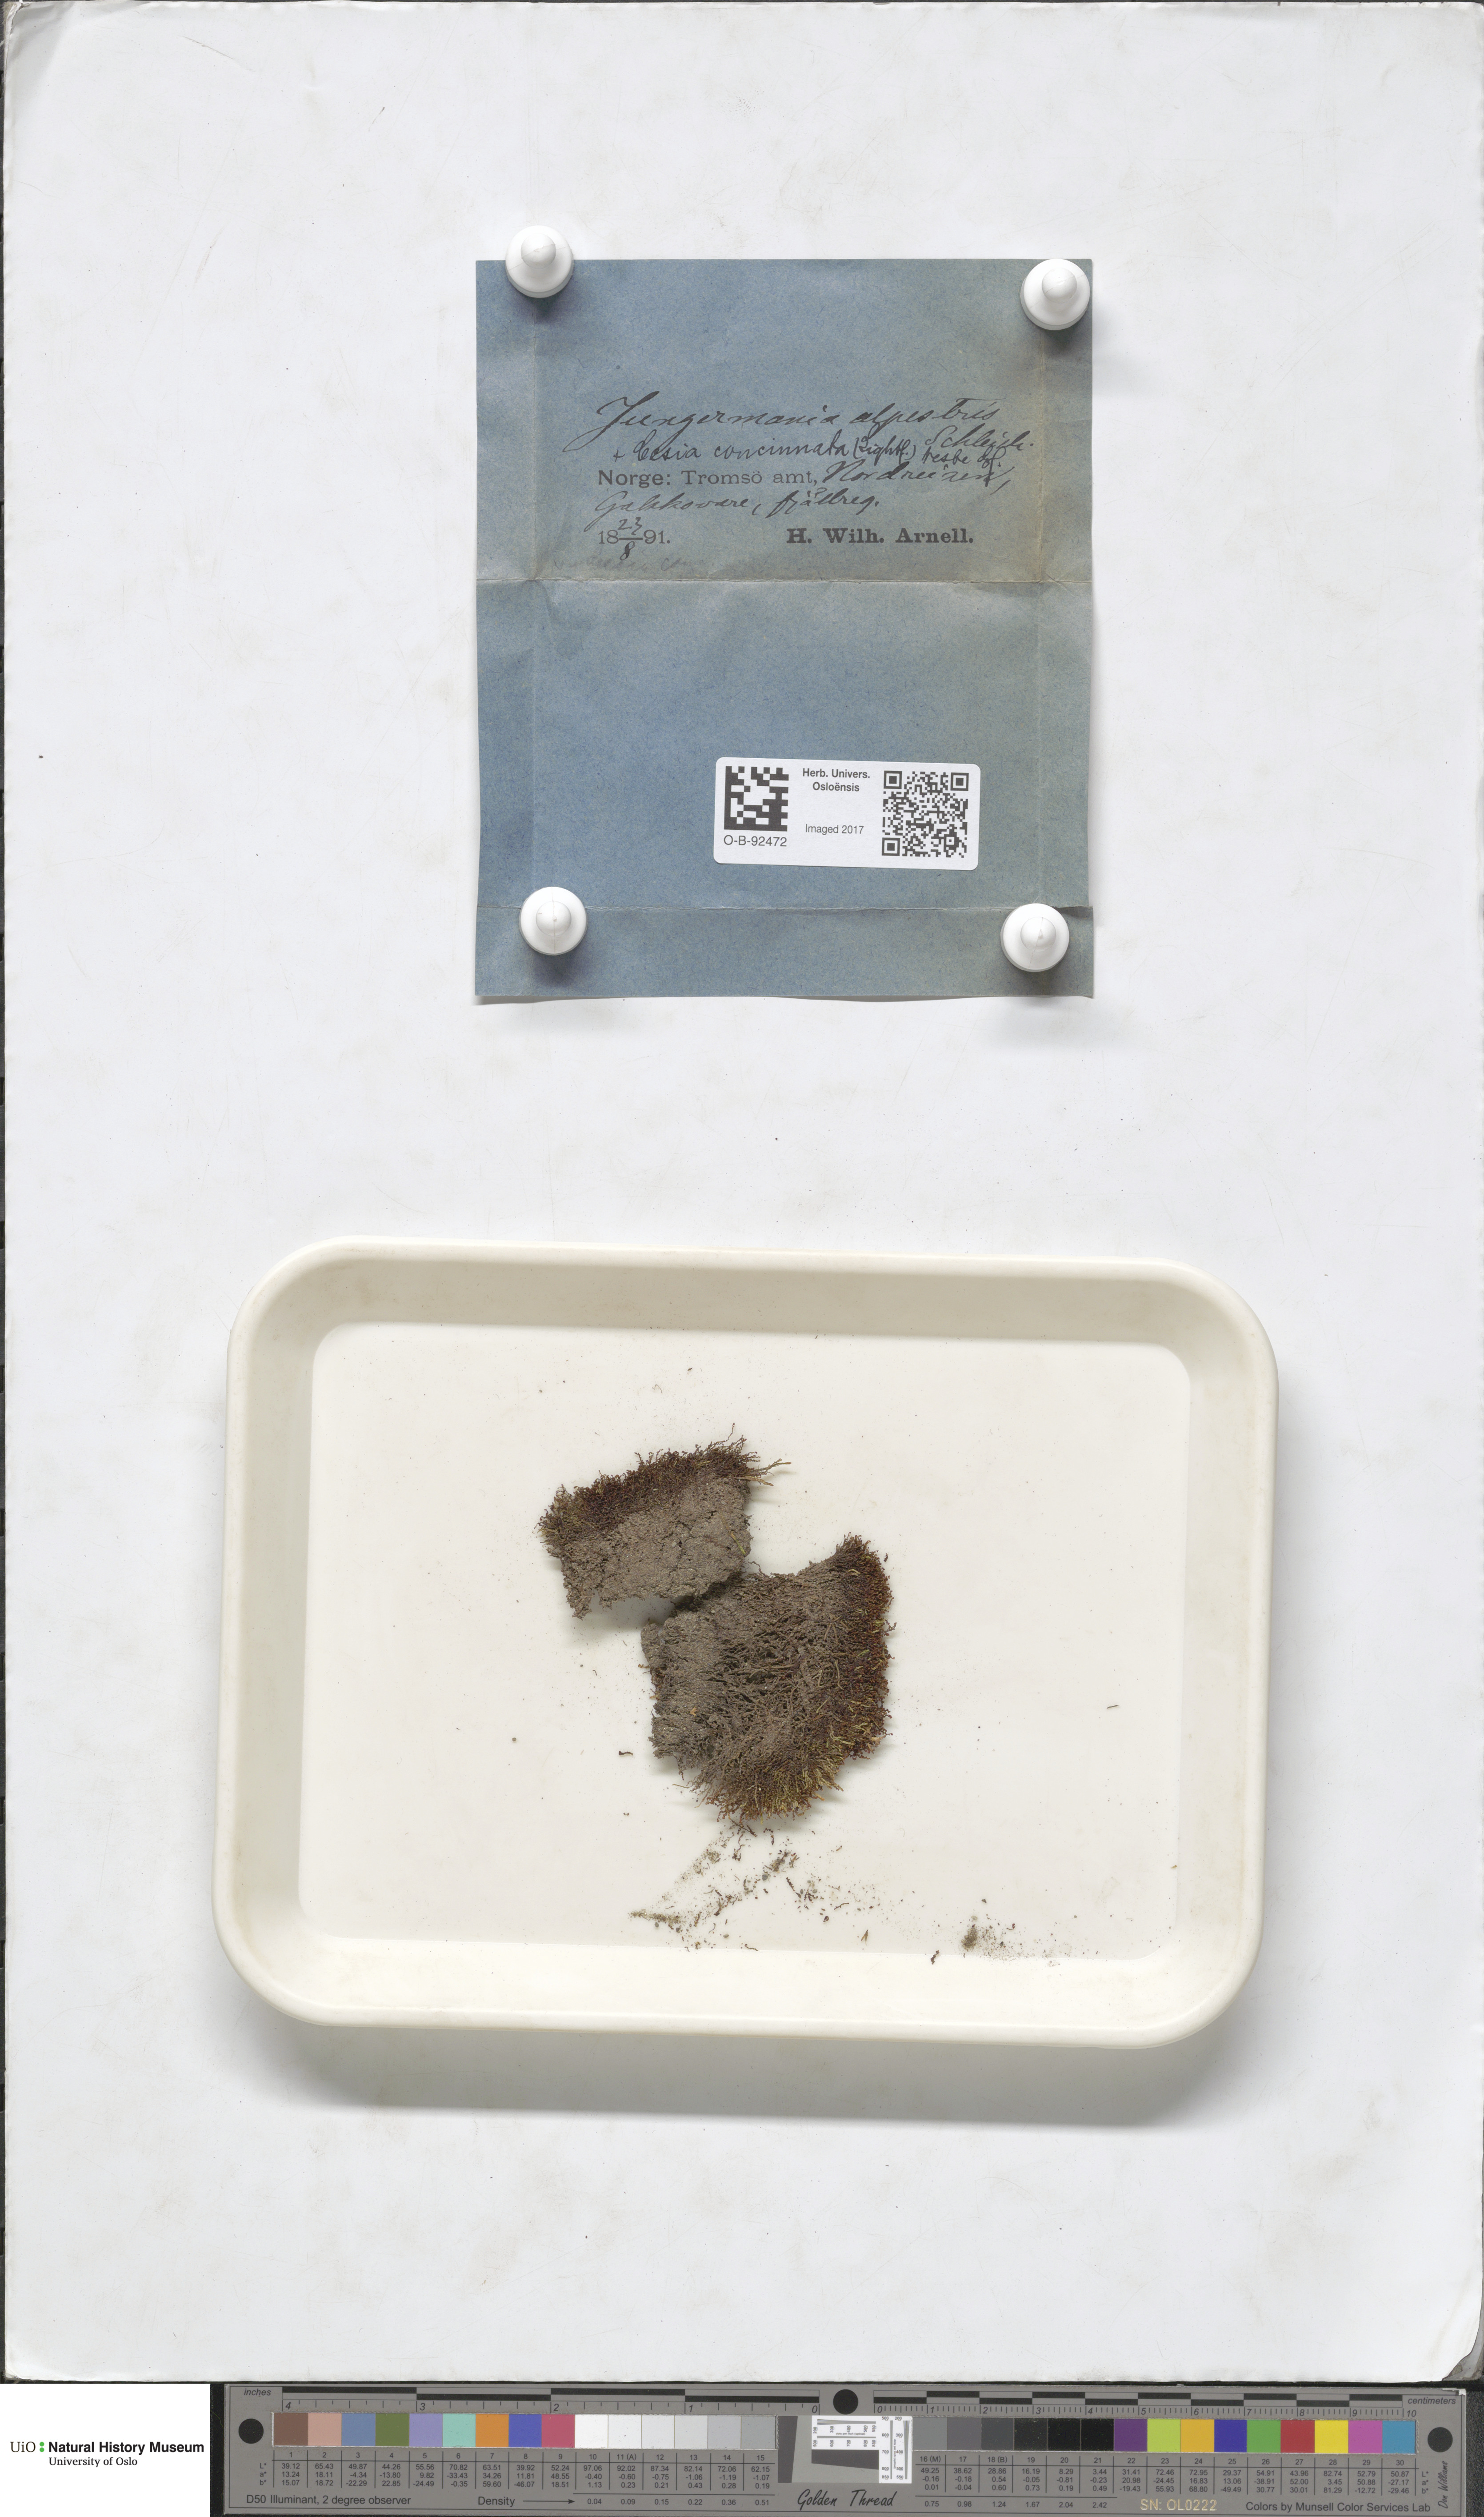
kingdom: Plantae
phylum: Marchantiophyta
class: Jungermanniopsida
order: Jungermanniales
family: Anastrophyllaceae
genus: Barbilophozia
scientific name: Barbilophozia sudetica
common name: Hill notchwort
